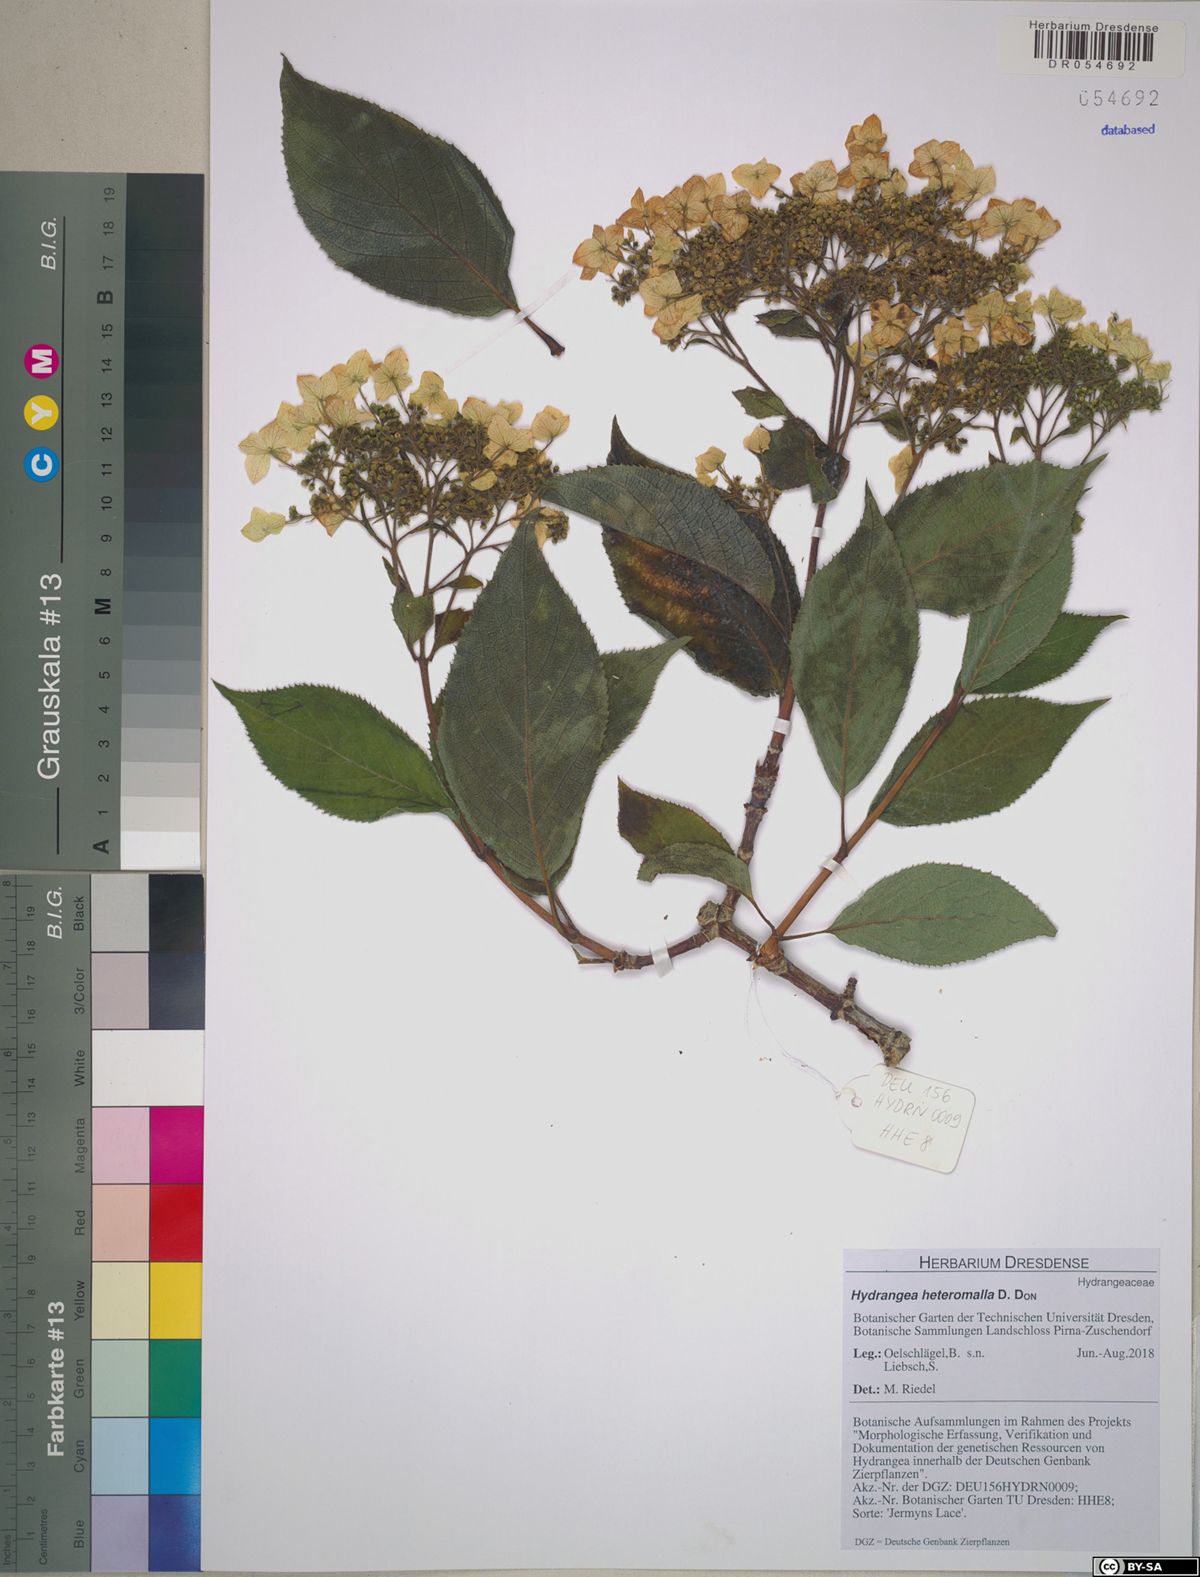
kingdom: Plantae
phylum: Tracheophyta
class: Magnoliopsida
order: Cornales
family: Hydrangeaceae
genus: Hydrangea
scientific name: Hydrangea heteromalla
